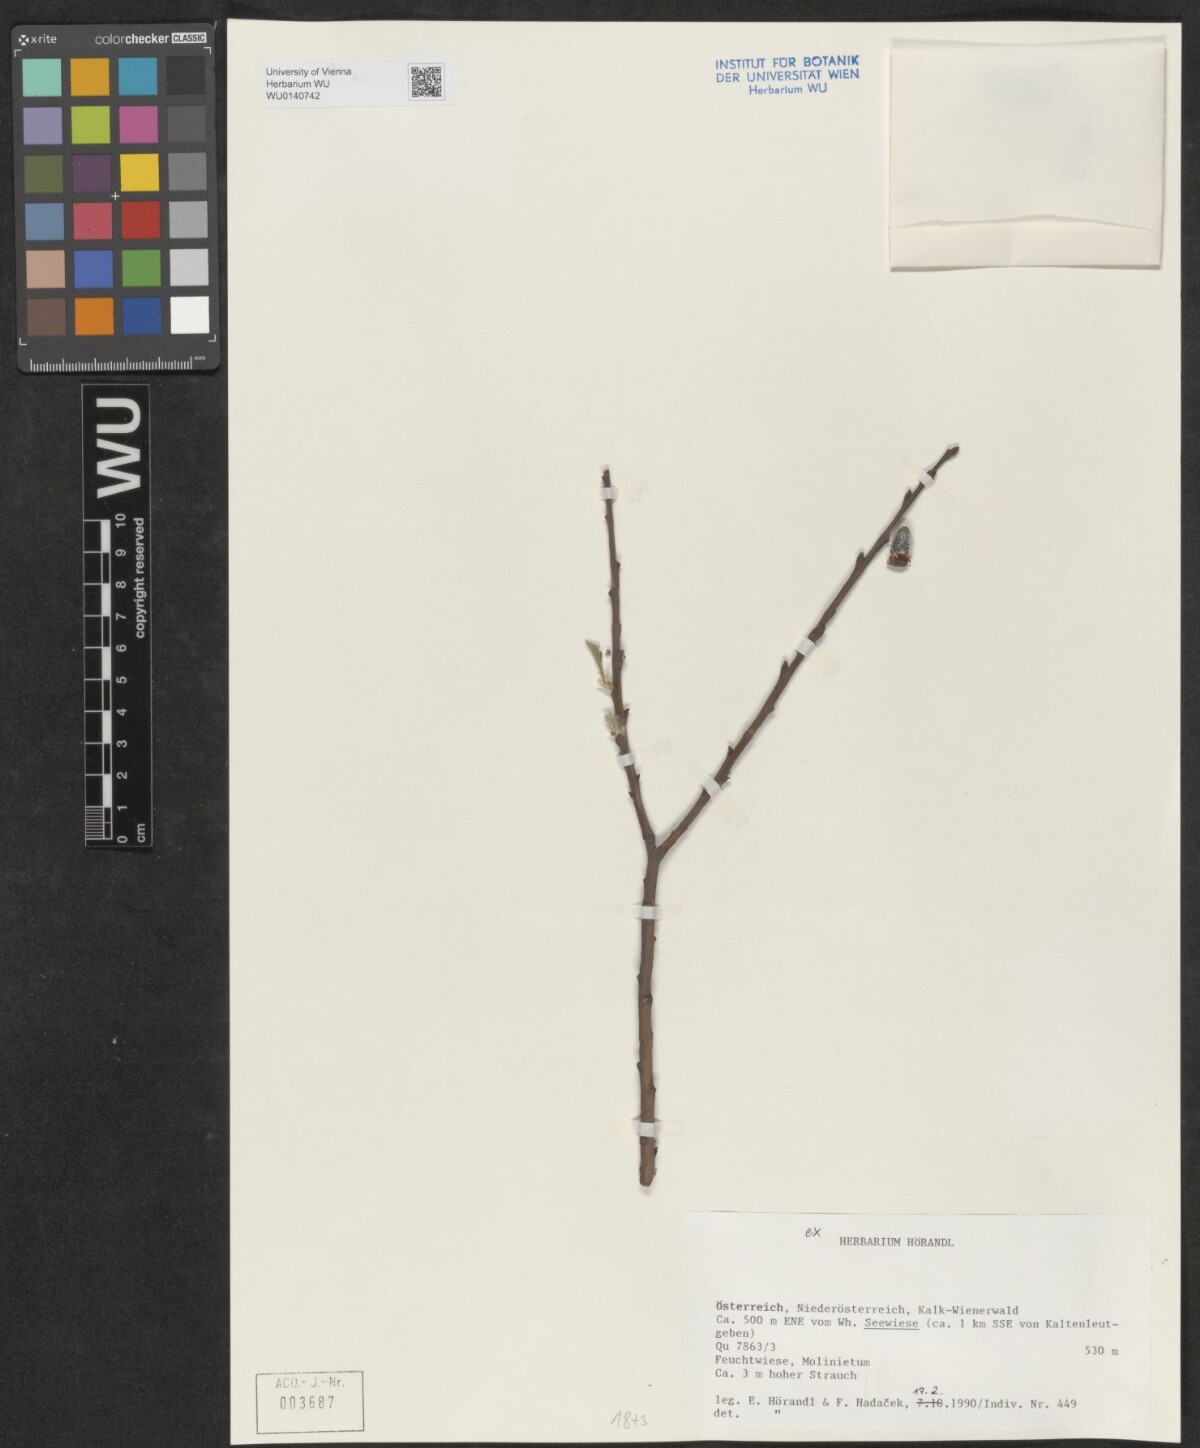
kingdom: Plantae
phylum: Tracheophyta
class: Magnoliopsida
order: Malpighiales
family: Salicaceae
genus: Salix
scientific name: Salix
